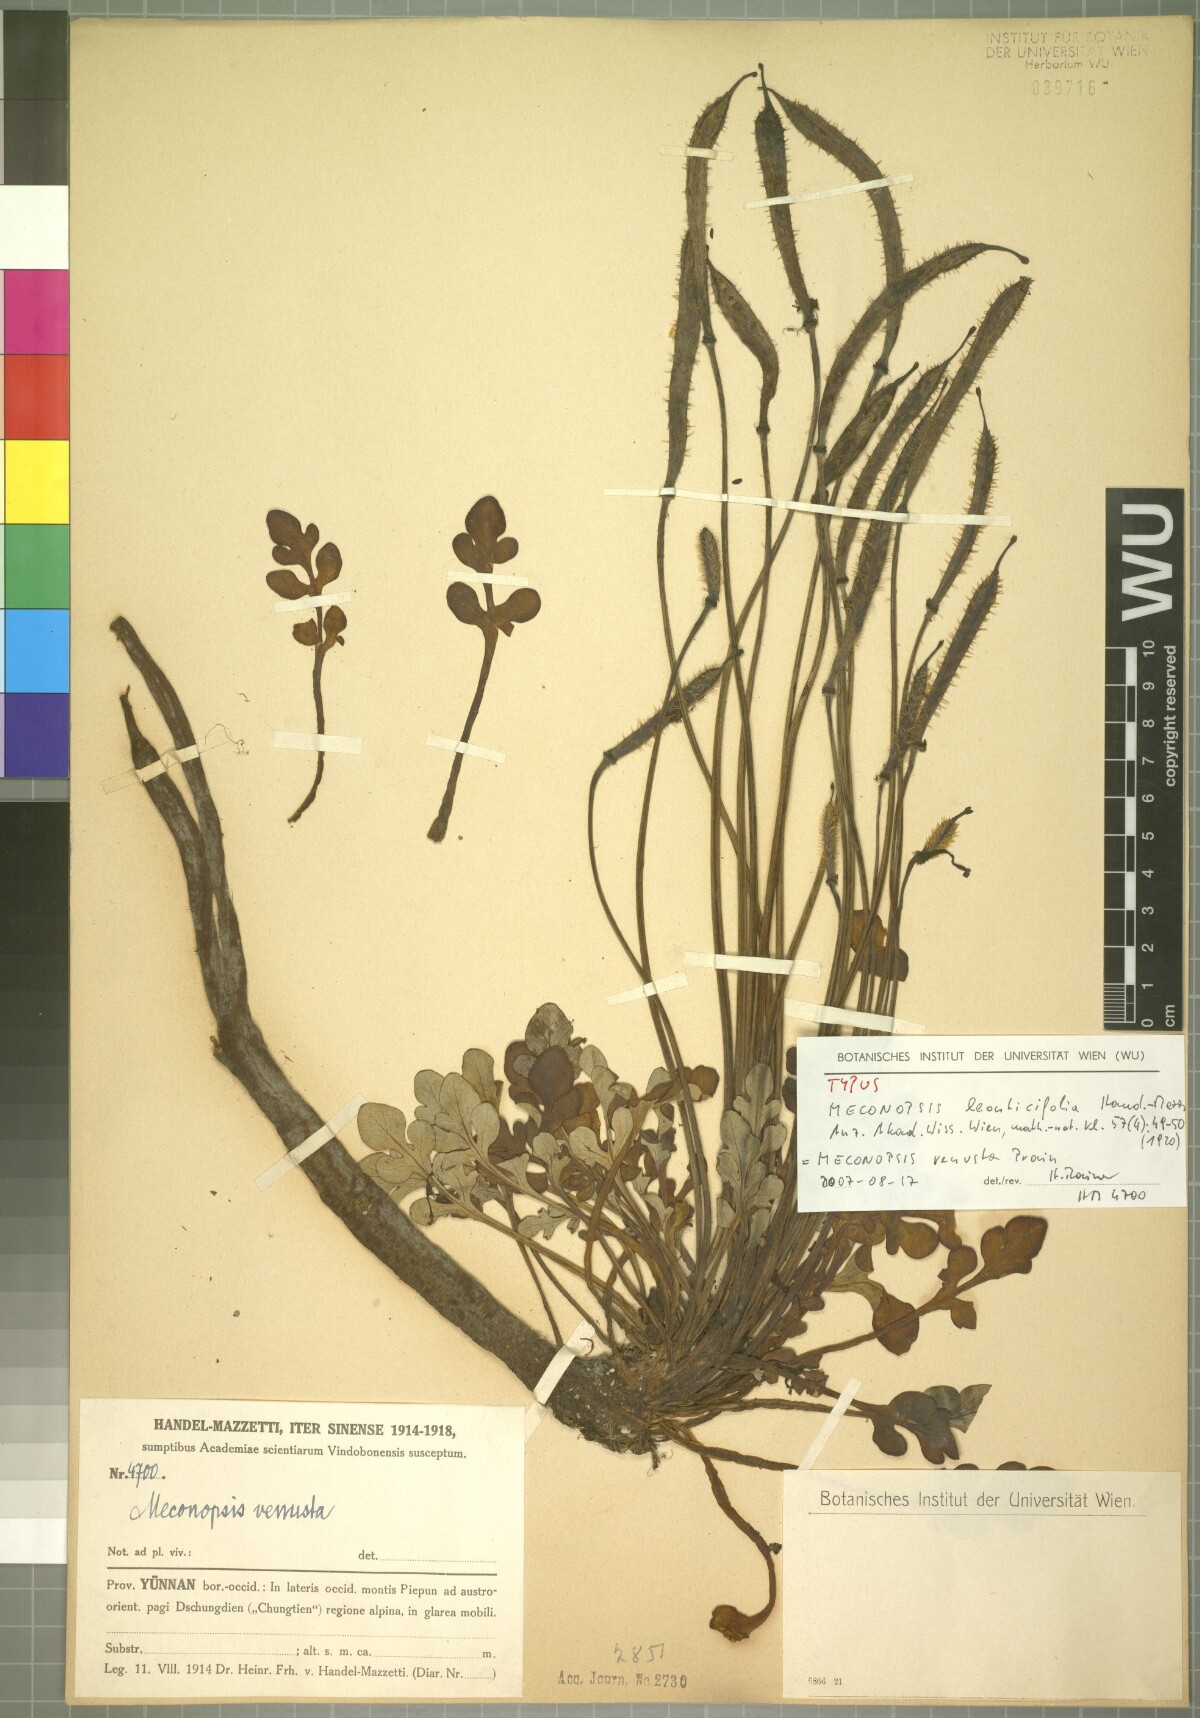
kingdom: Plantae
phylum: Tracheophyta
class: Magnoliopsida
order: Ranunculales
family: Papaveraceae
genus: Meconopsis
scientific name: Meconopsis venusta
